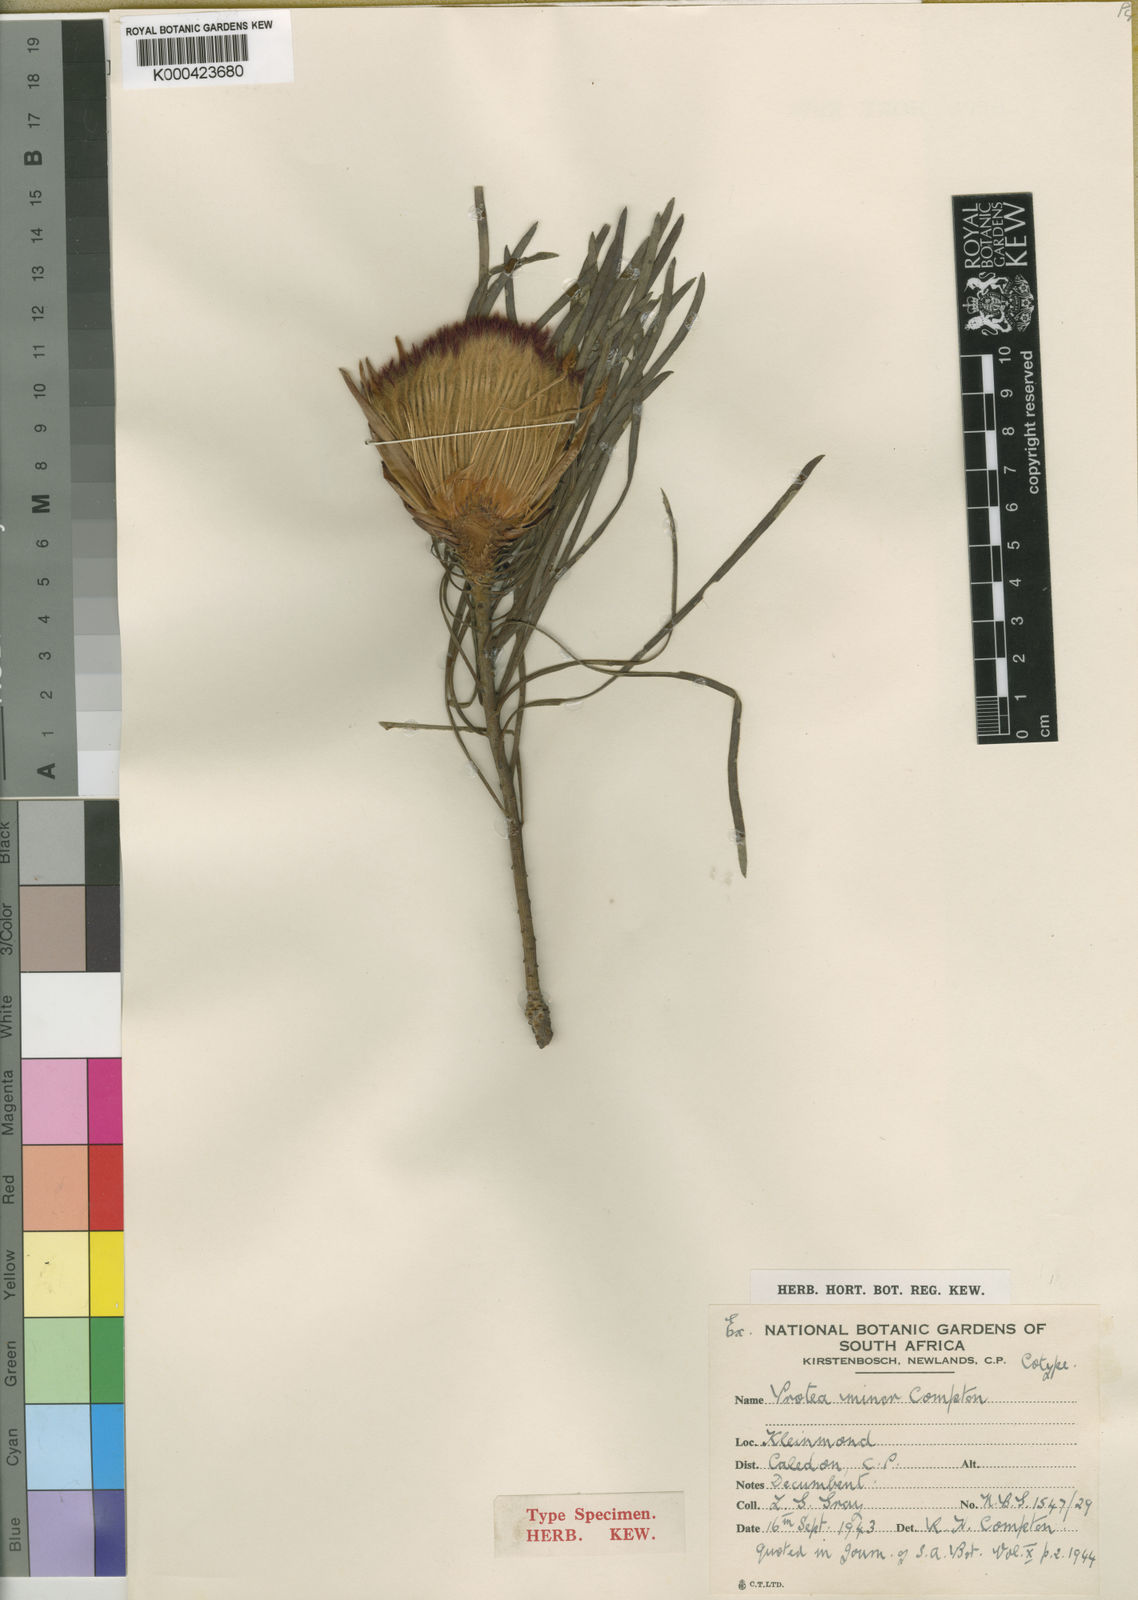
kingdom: Plantae
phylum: Tracheophyta
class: Magnoliopsida
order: Proteales
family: Proteaceae
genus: Protea
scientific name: Protea longifolia
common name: Long-leaf sugarbush
